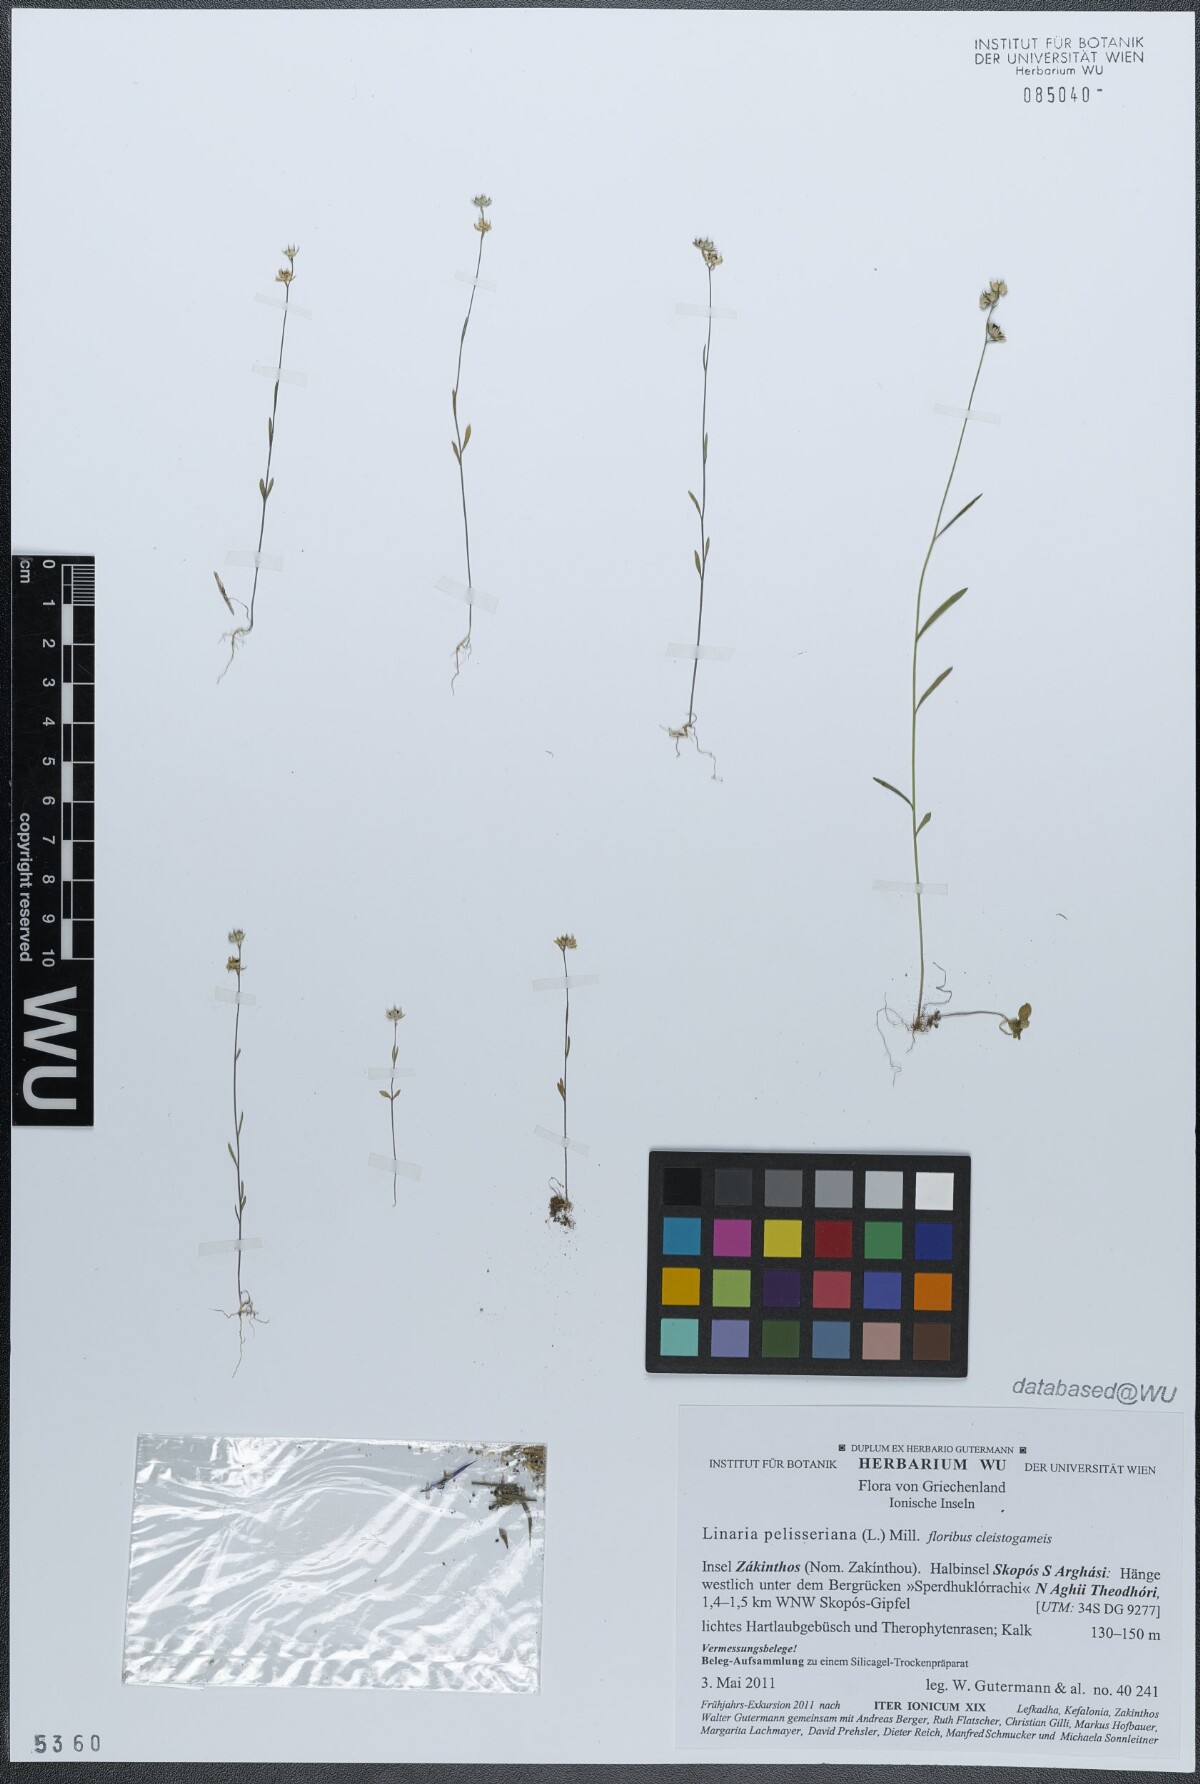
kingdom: Plantae
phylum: Tracheophyta
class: Magnoliopsida
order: Lamiales
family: Plantaginaceae
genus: Linaria
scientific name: Linaria pelisseriana
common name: Jersey toadflax
